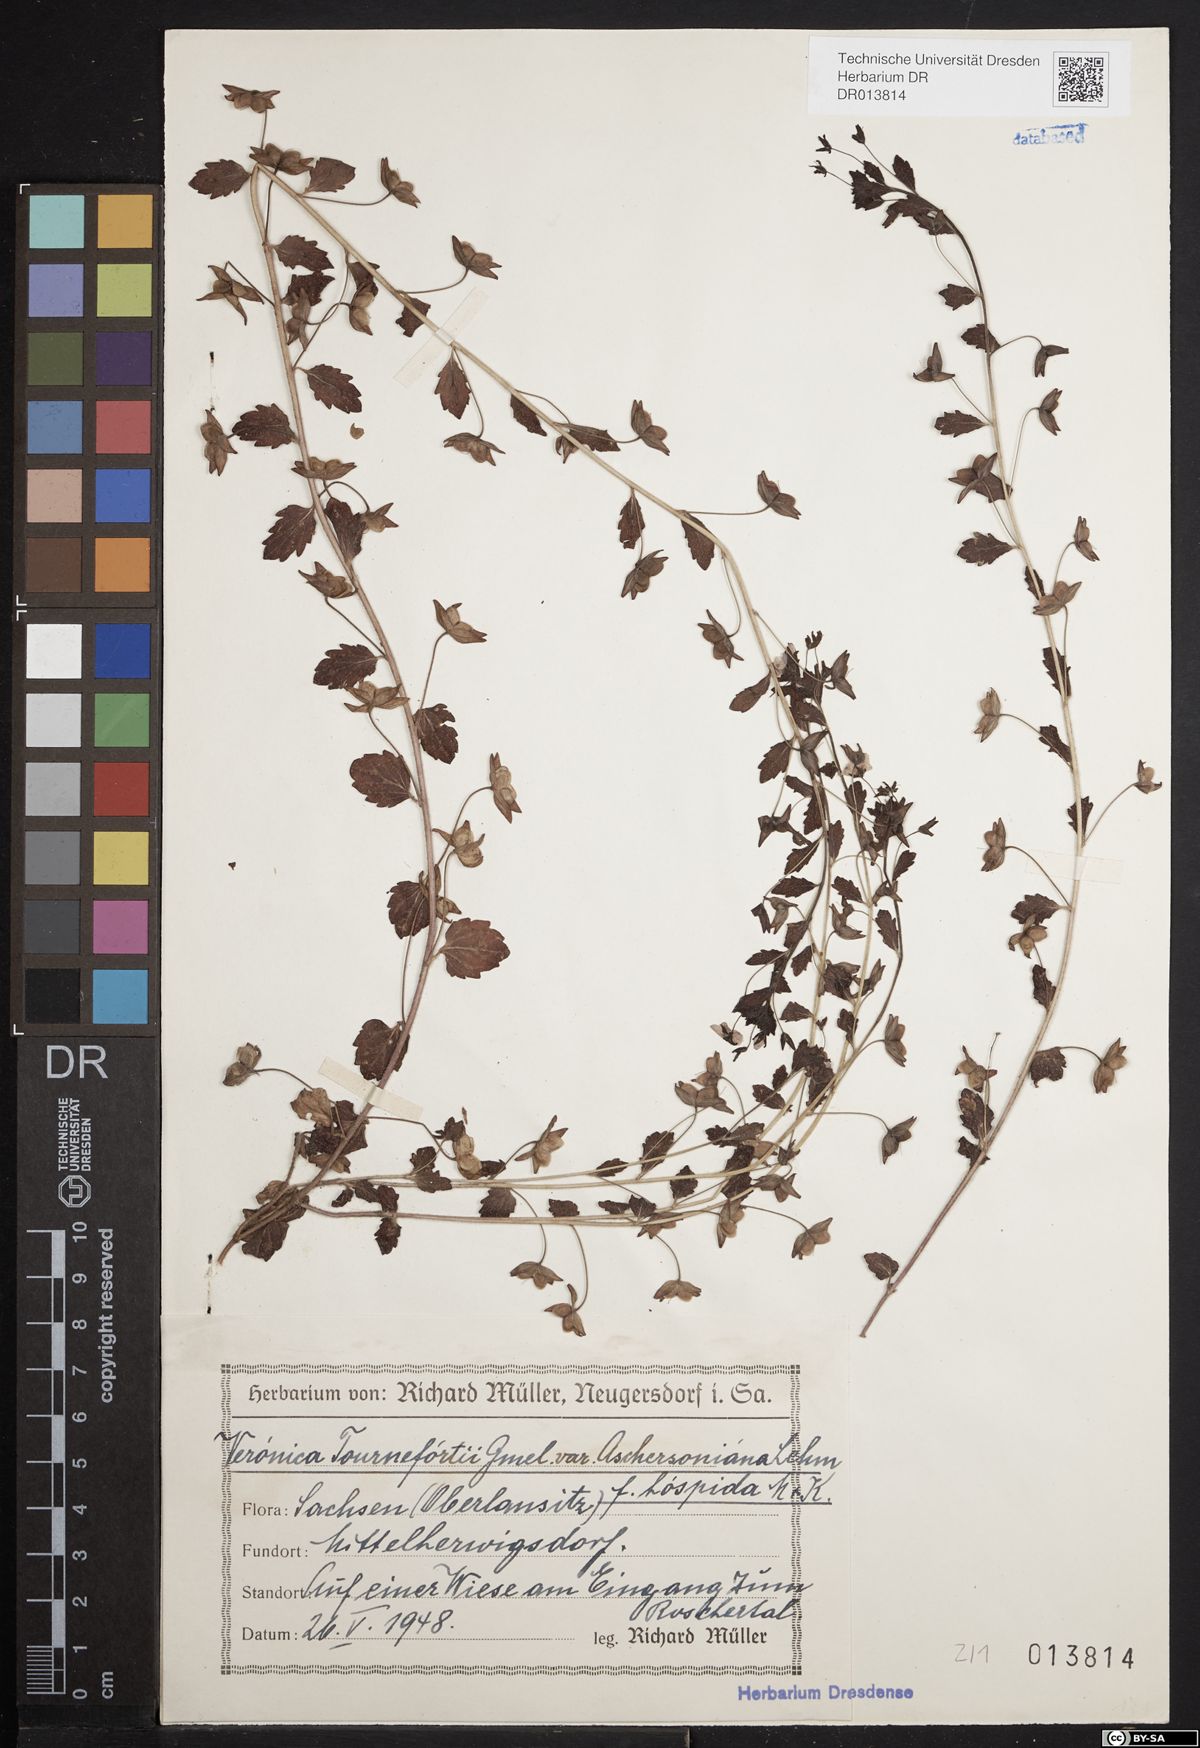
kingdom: Plantae
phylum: Tracheophyta
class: Magnoliopsida
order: Lamiales
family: Plantaginaceae
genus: Veronica
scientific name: Veronica persica
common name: Common field-speedwell
